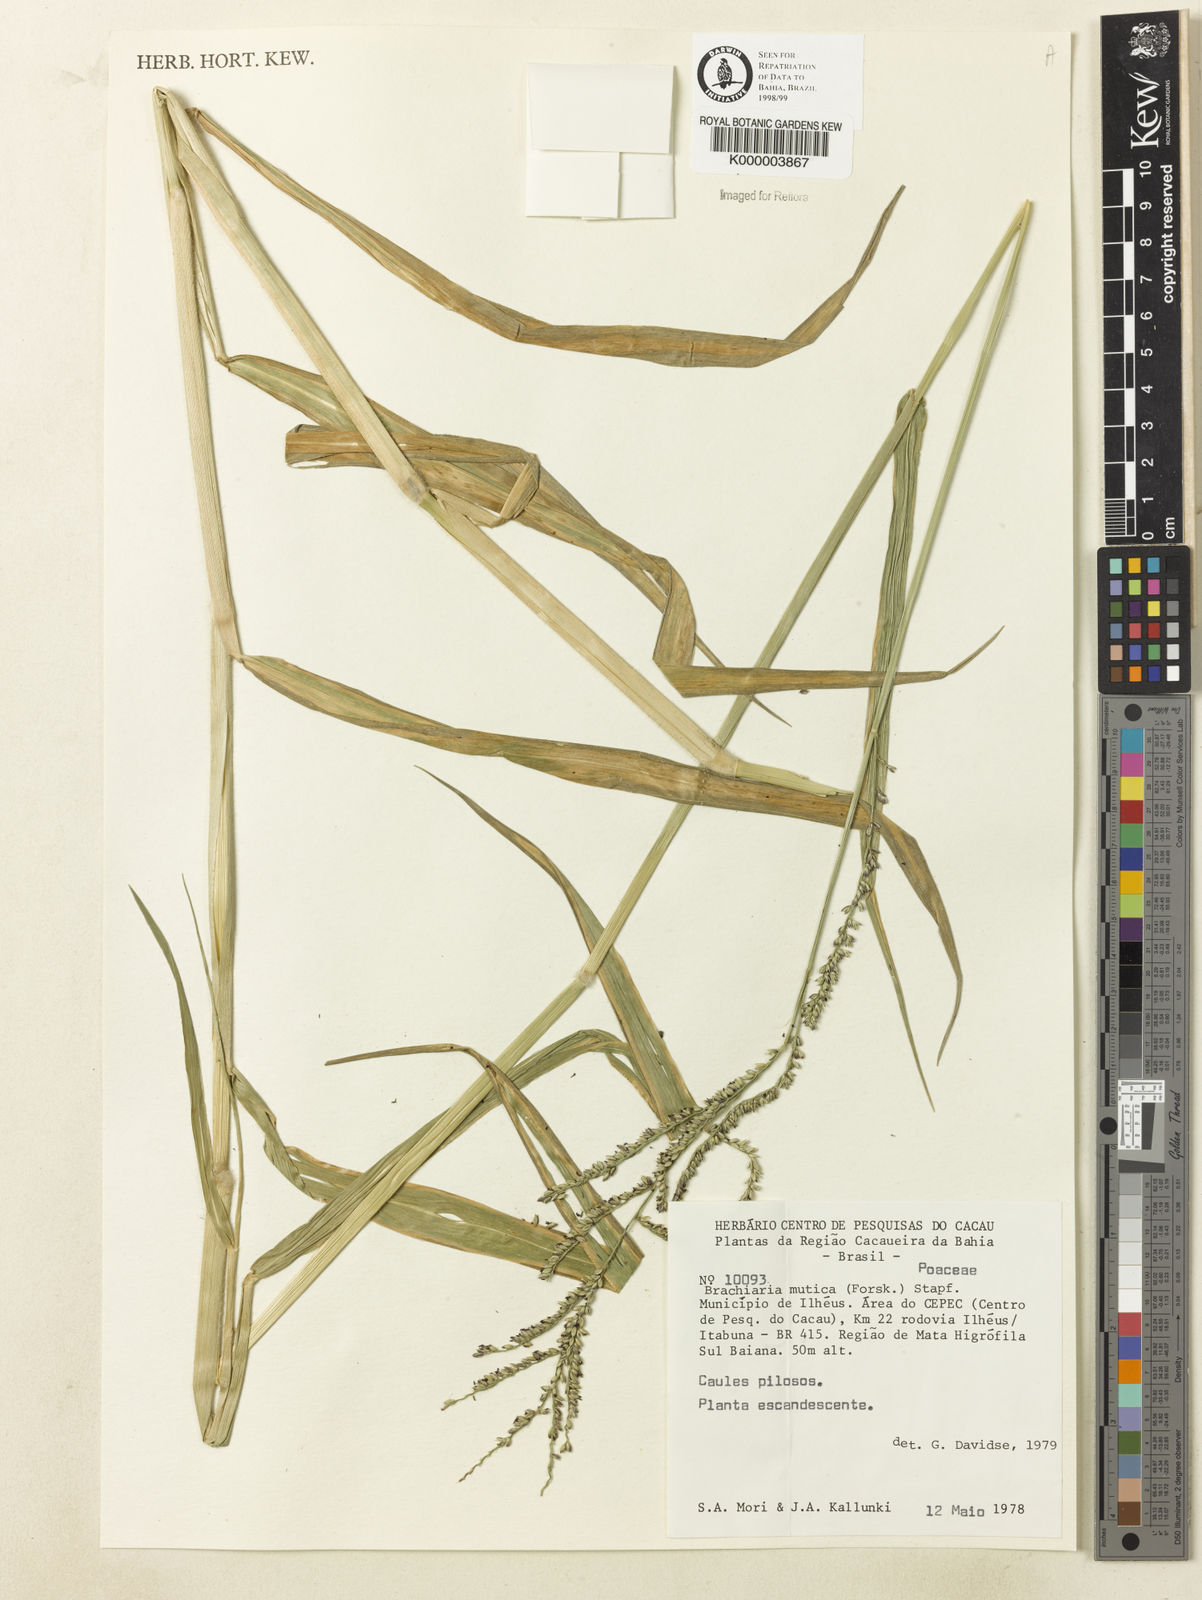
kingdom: Plantae
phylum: Tracheophyta
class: Liliopsida
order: Poales
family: Poaceae
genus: Urochloa
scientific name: Urochloa mutica
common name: Para grass
